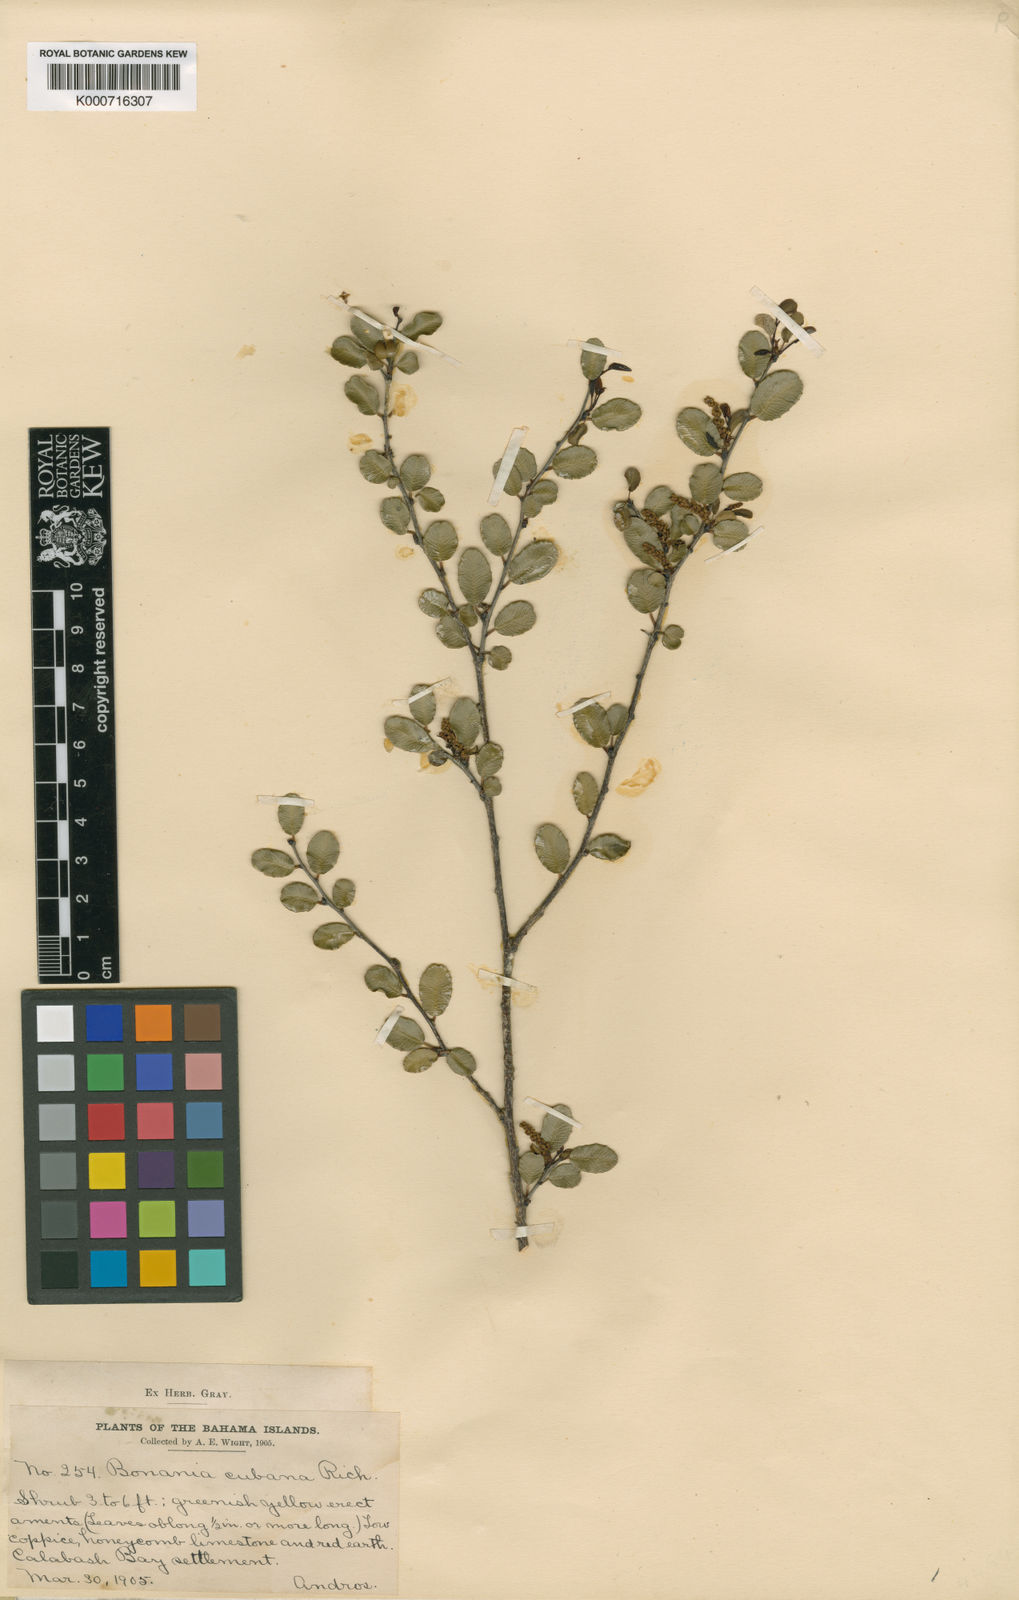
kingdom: Plantae
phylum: Tracheophyta
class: Magnoliopsida
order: Malpighiales
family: Euphorbiaceae
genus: Bonania
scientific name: Bonania cubana
